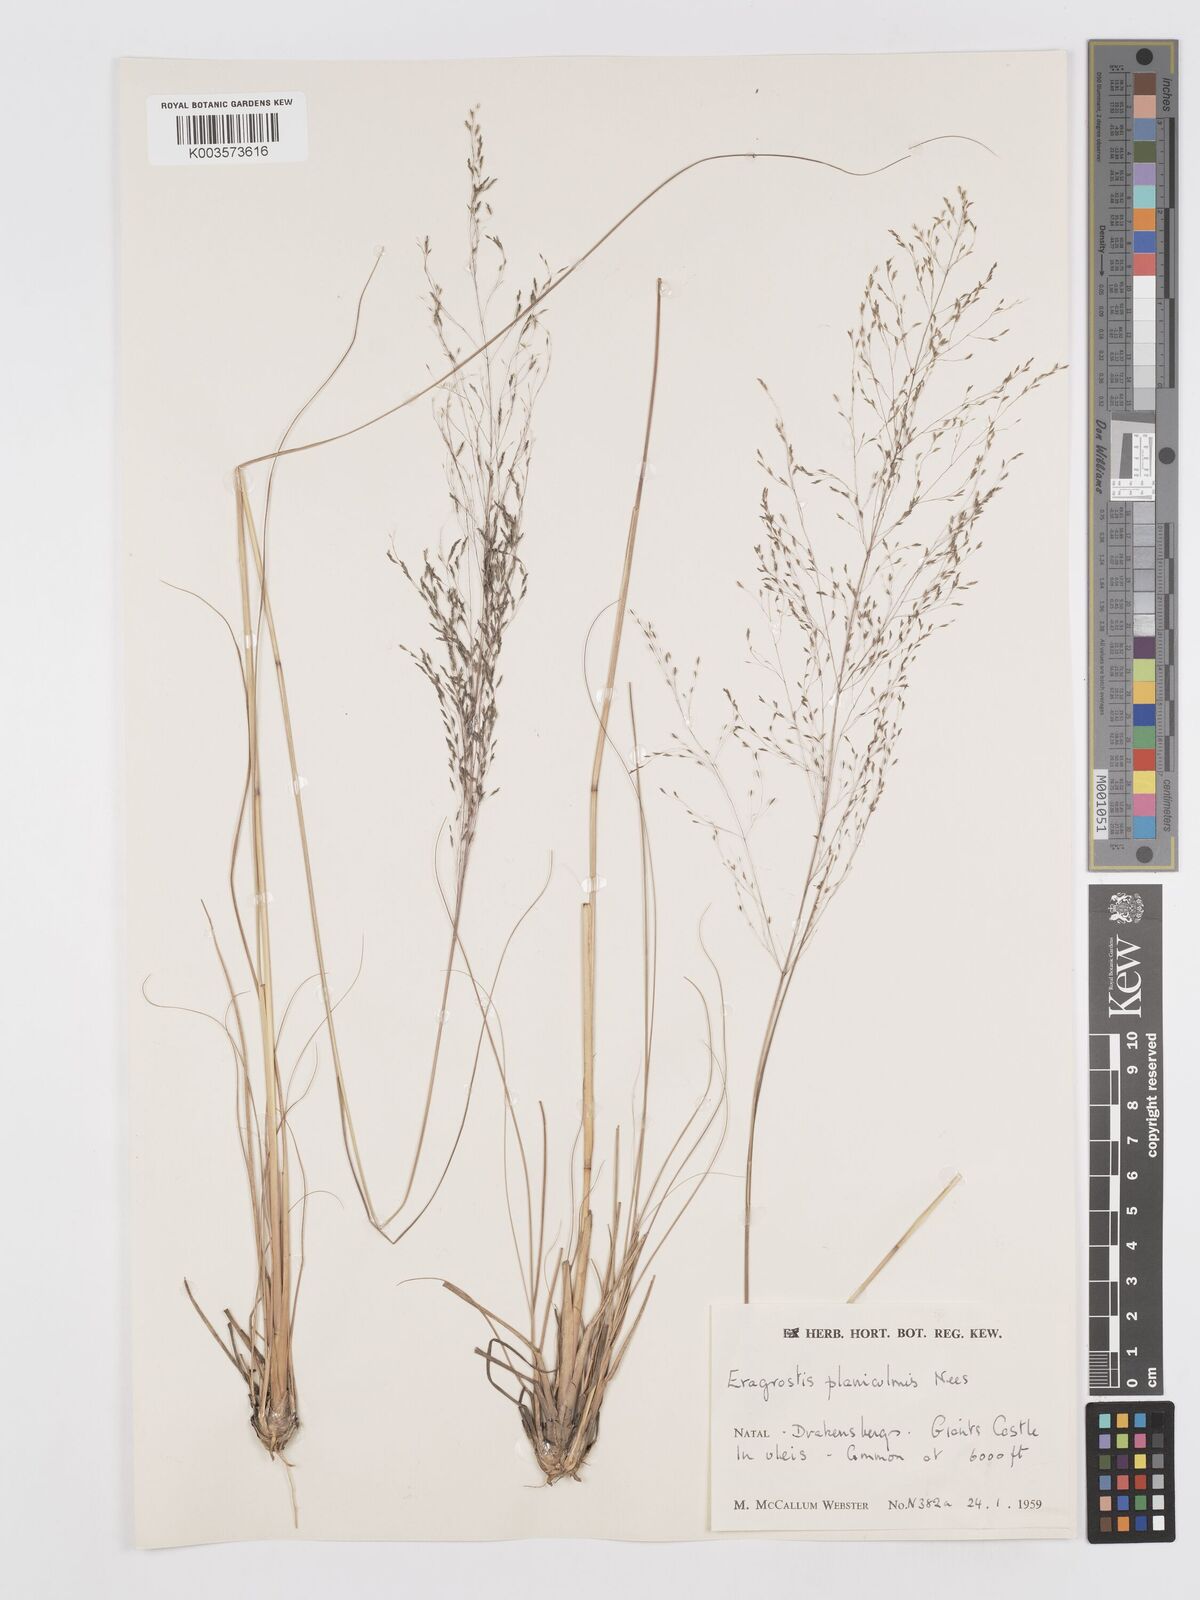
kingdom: Plantae
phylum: Tracheophyta
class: Liliopsida
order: Poales
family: Poaceae
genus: Eragrostis
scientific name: Eragrostis planiculmis
